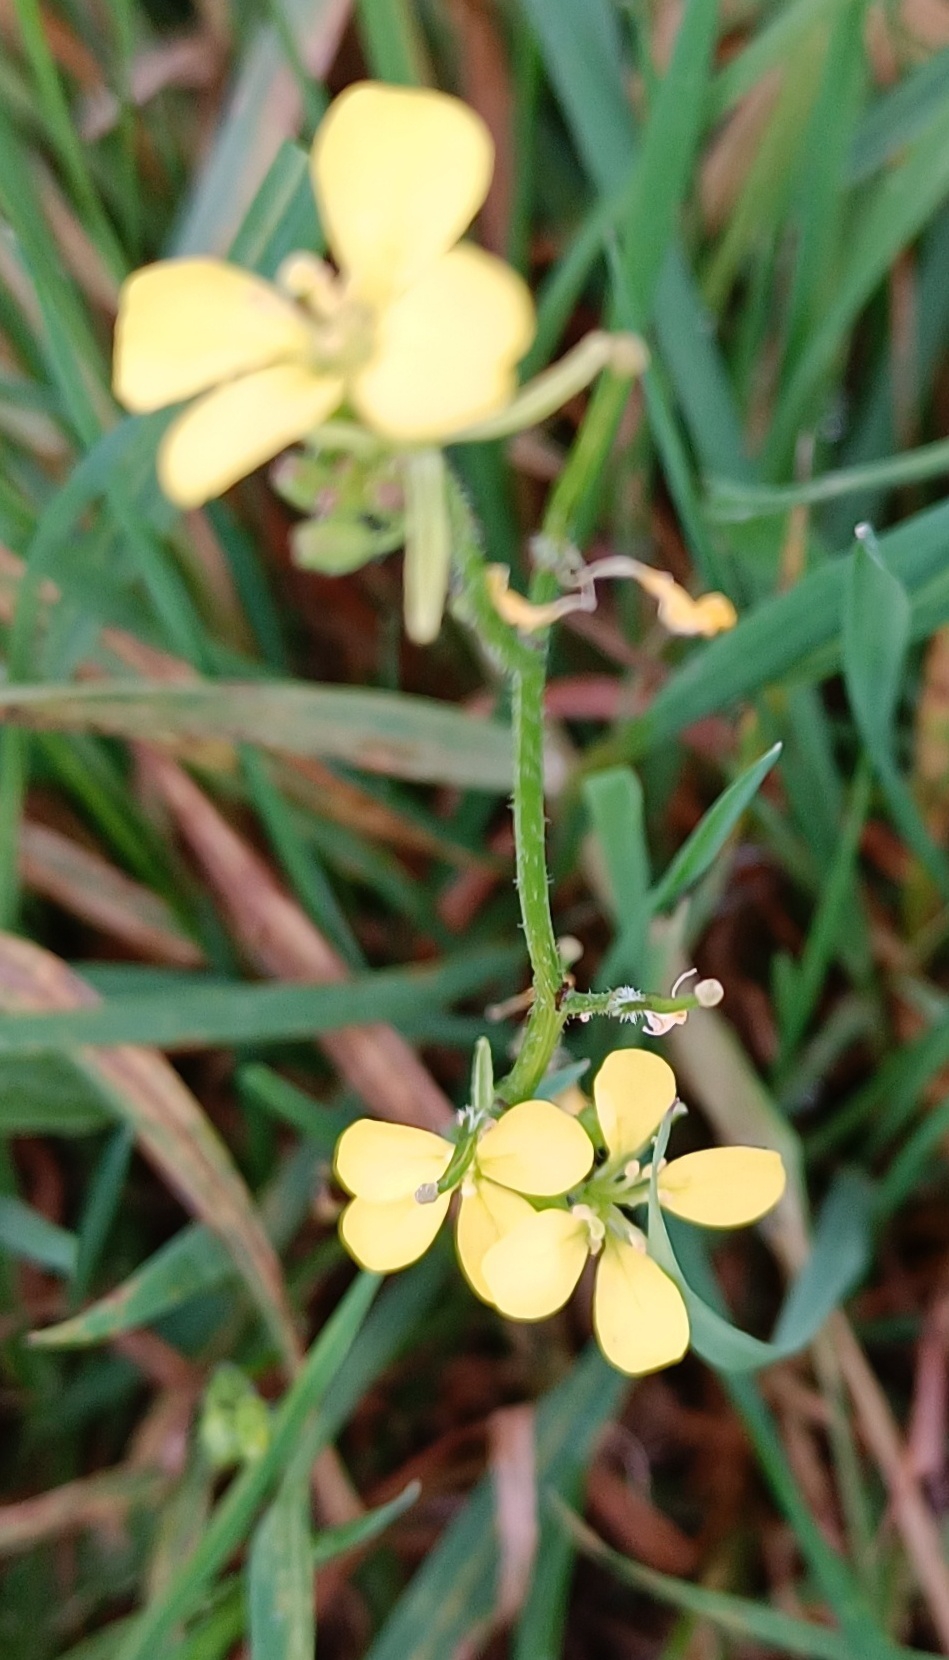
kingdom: Plantae
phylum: Tracheophyta
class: Magnoliopsida
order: Brassicales
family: Brassicaceae
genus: Sinapis
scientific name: Sinapis
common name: Sennepslægten
